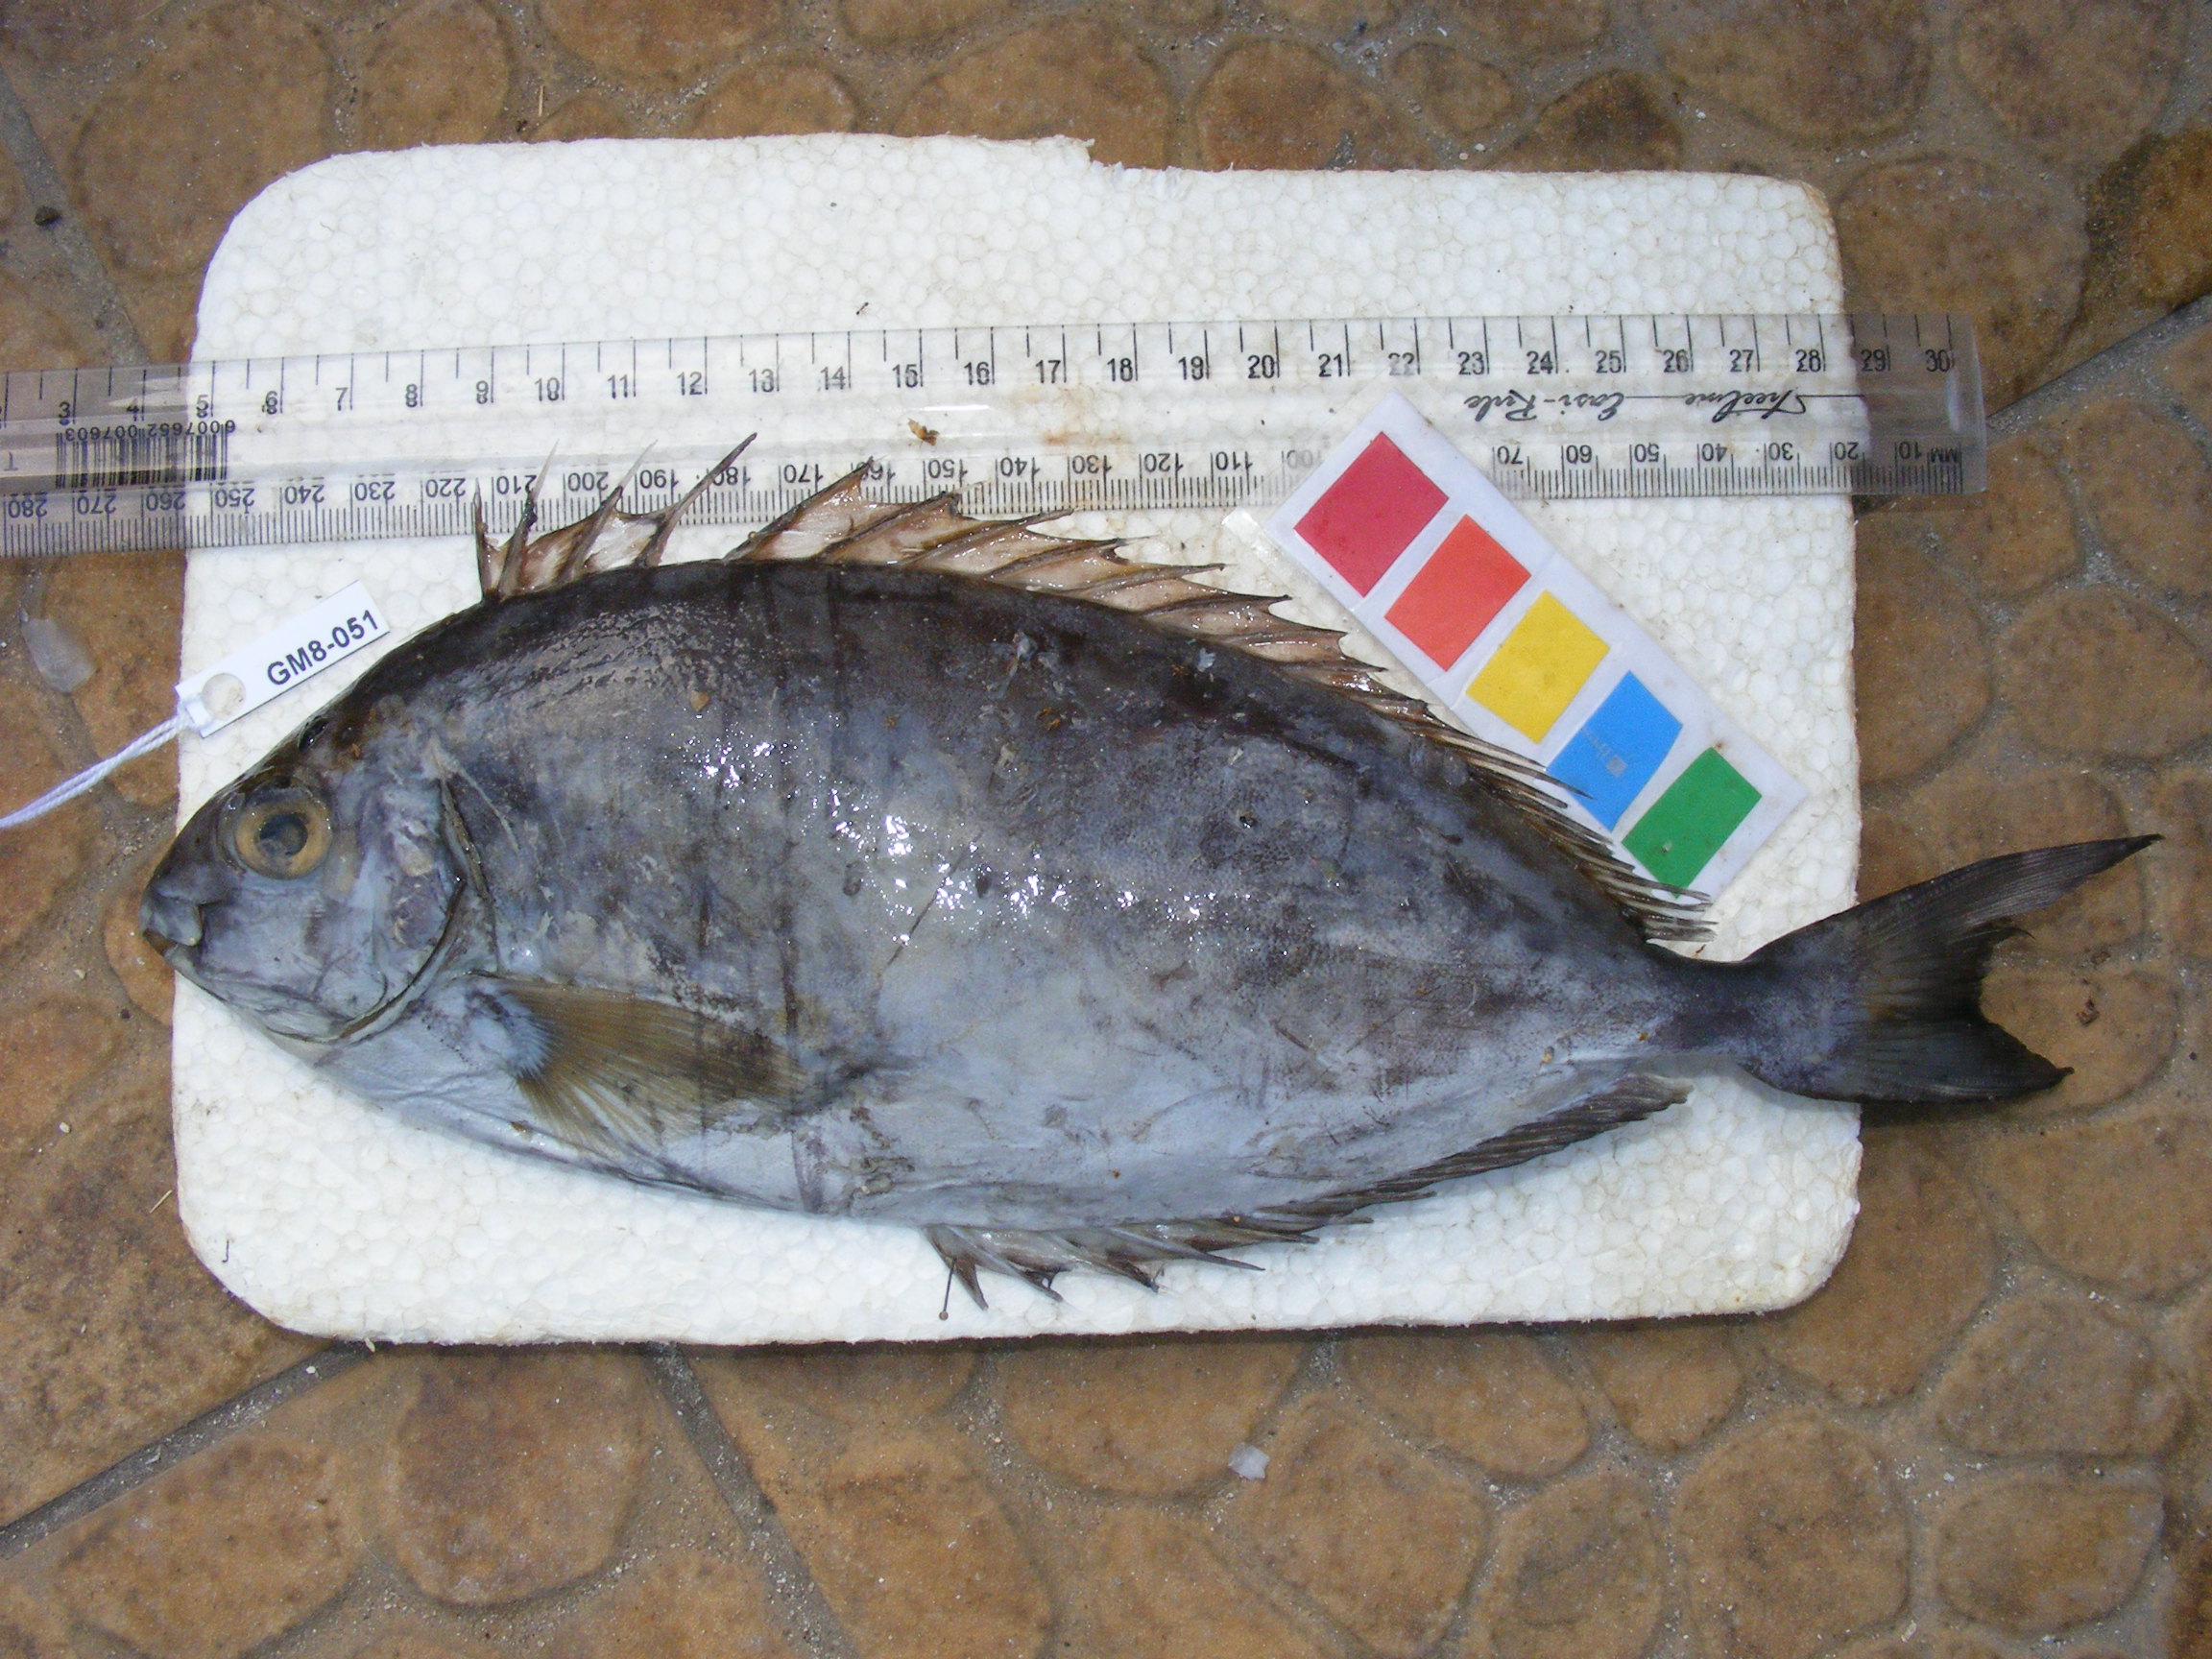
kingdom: Animalia
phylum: Chordata
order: Perciformes
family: Siganidae
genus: Siganus
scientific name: Siganus sutor
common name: Shoemaker spinefoot
